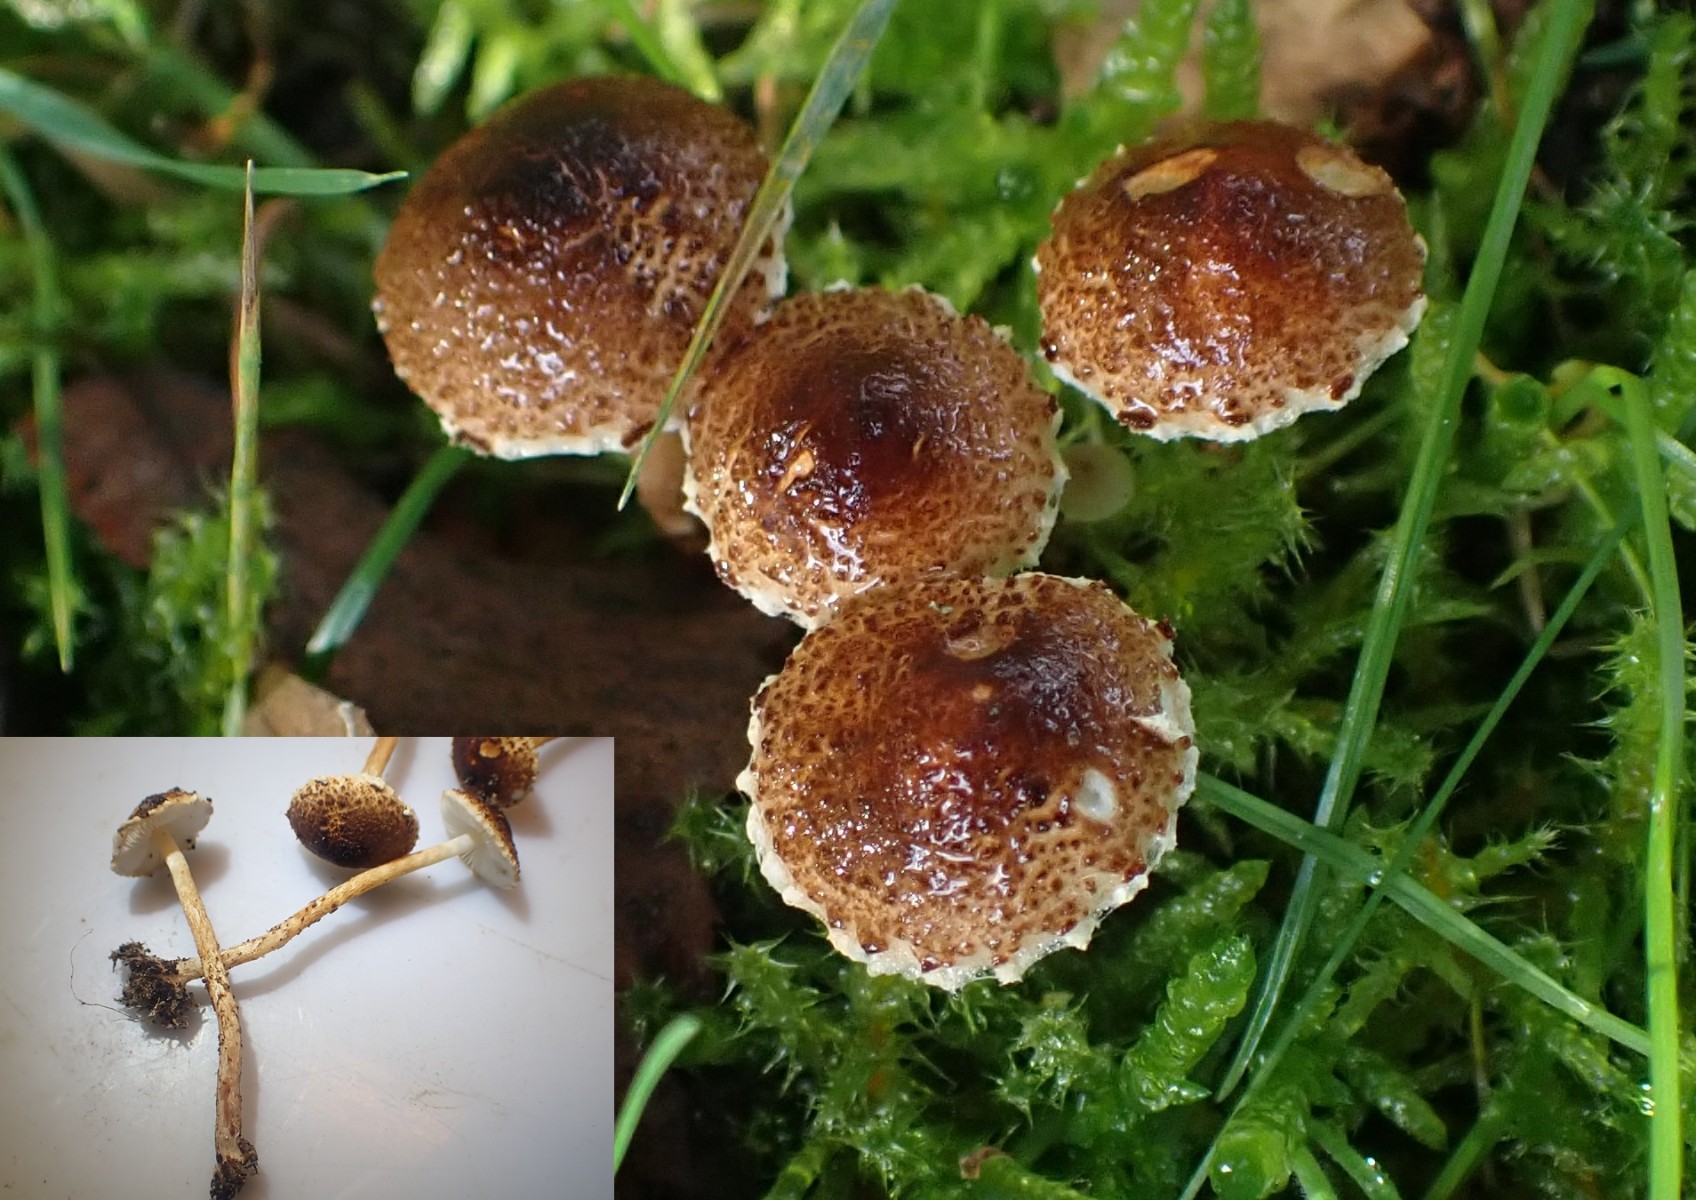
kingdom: Fungi
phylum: Basidiomycota
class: Agaricomycetes
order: Agaricales
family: Agaricaceae
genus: Lepiota
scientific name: Lepiota castanea
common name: kastaniebrun parasolhat
